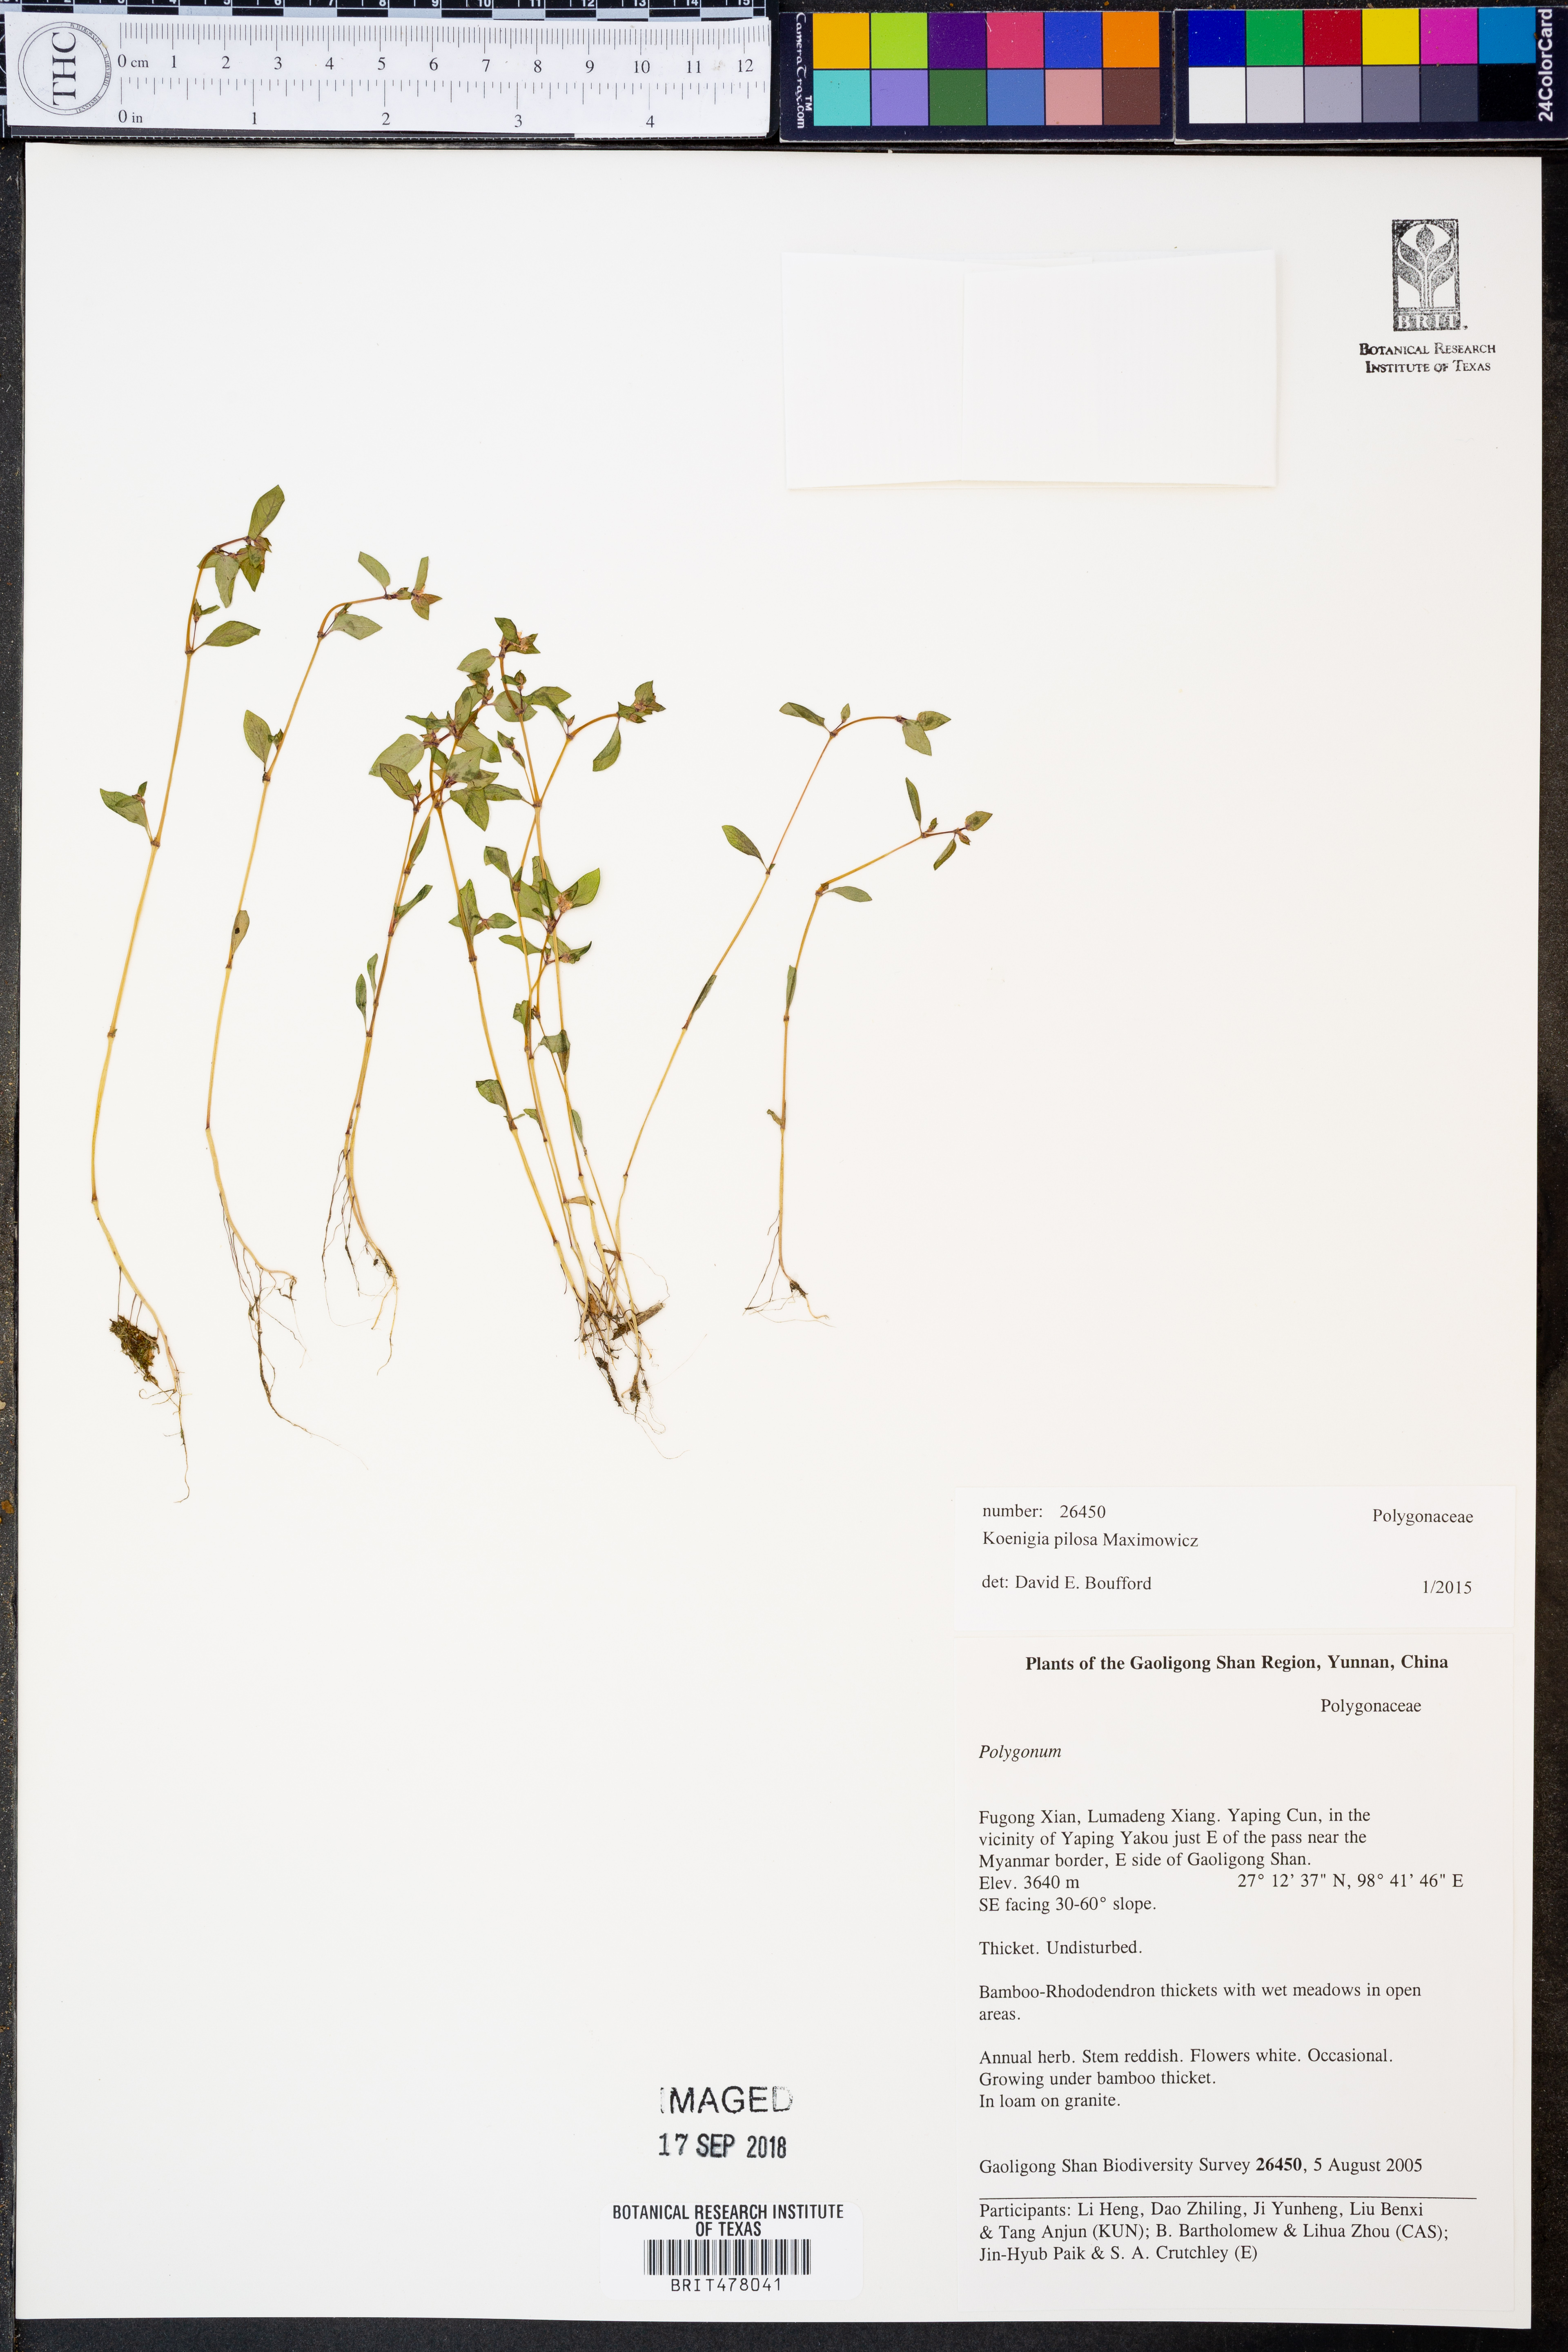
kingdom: Plantae
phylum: Tracheophyta
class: Magnoliopsida
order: Caryophyllales
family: Polygonaceae
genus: Koenigia
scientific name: Koenigia pilosa
